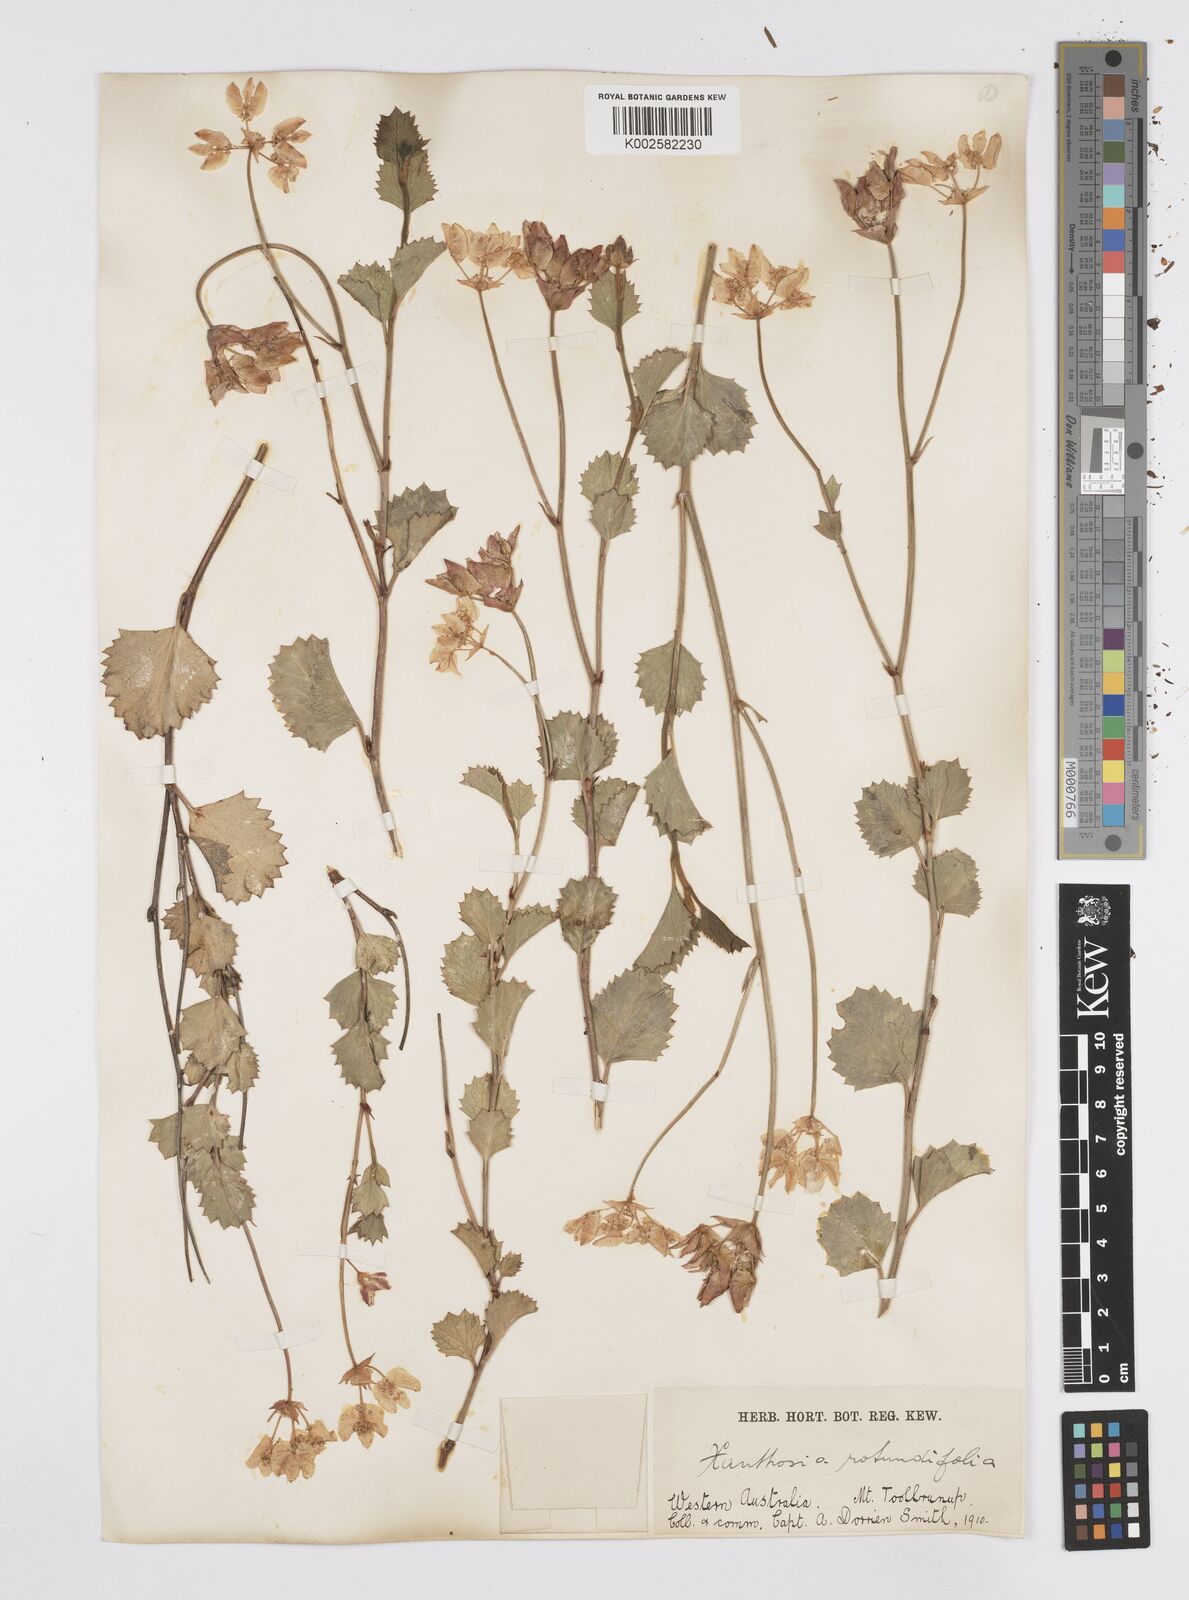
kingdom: Plantae
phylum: Tracheophyta
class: Magnoliopsida
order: Apiales
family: Apiaceae
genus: Xanthosia
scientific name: Xanthosia rotundifolia
